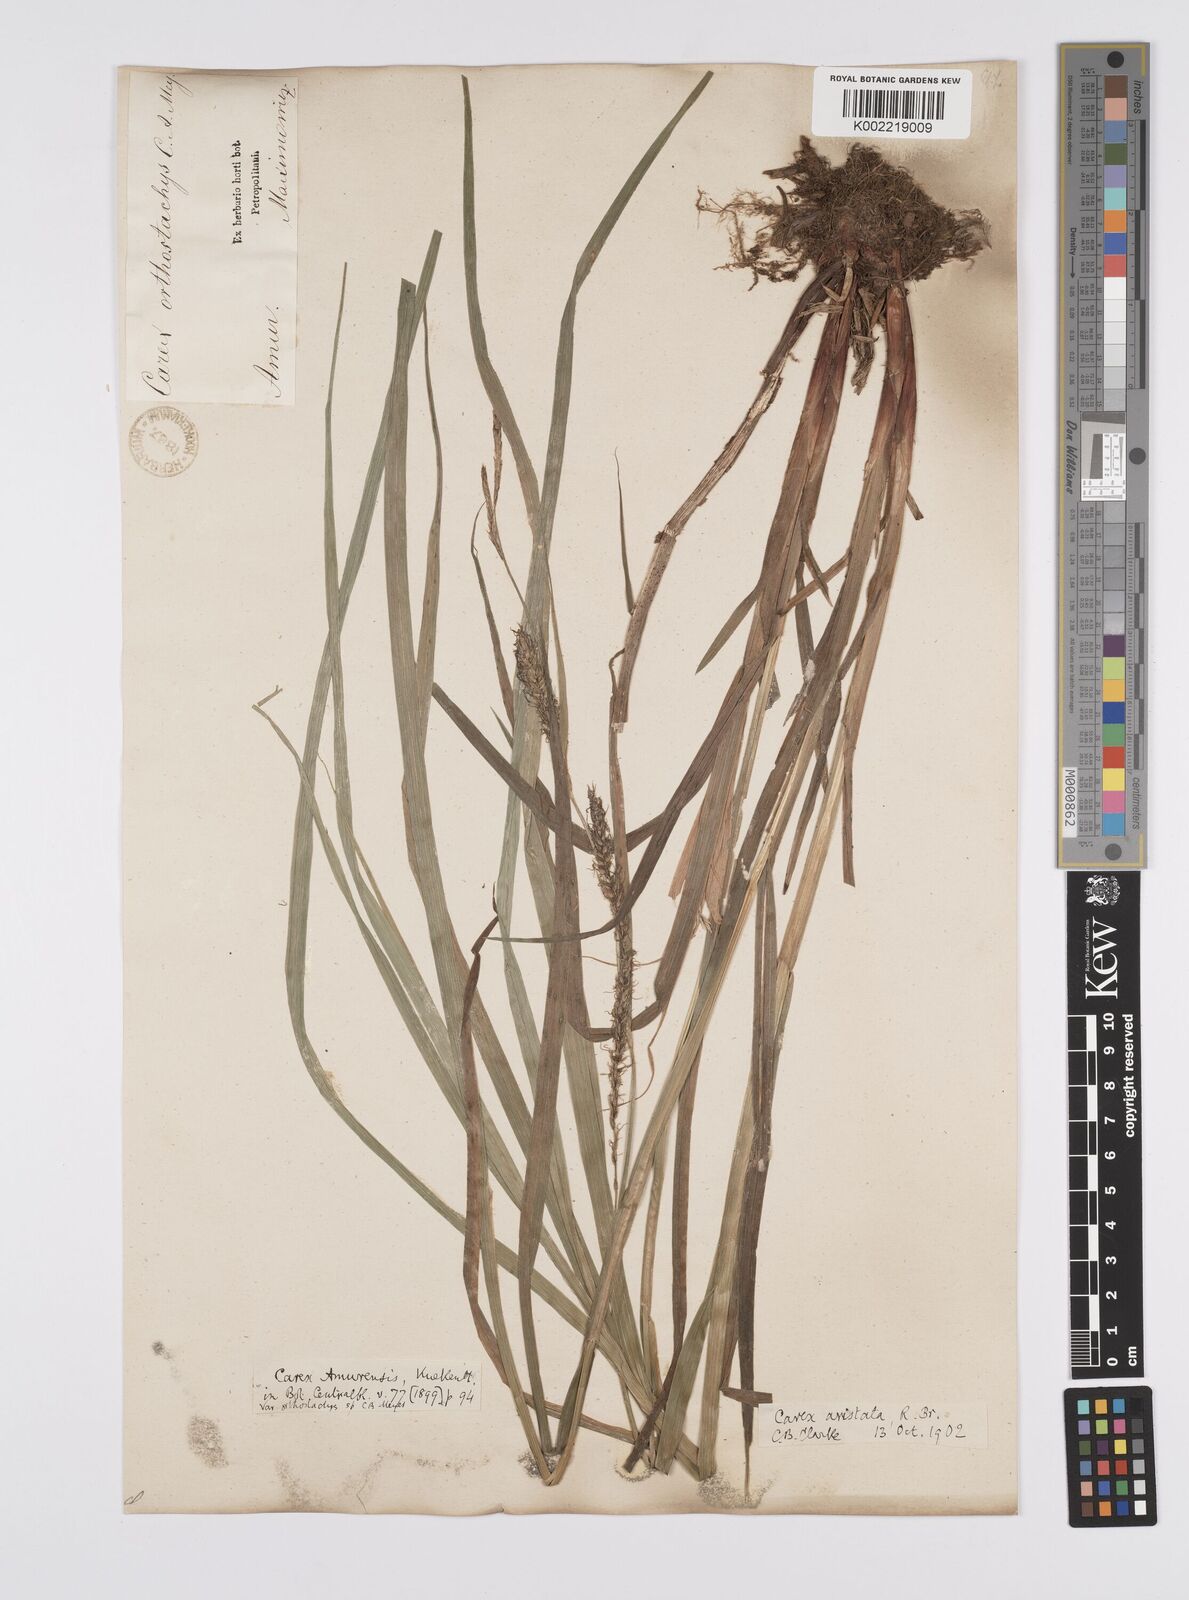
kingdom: Plantae
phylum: Tracheophyta
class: Liliopsida
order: Poales
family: Cyperaceae
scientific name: Cyperaceae
